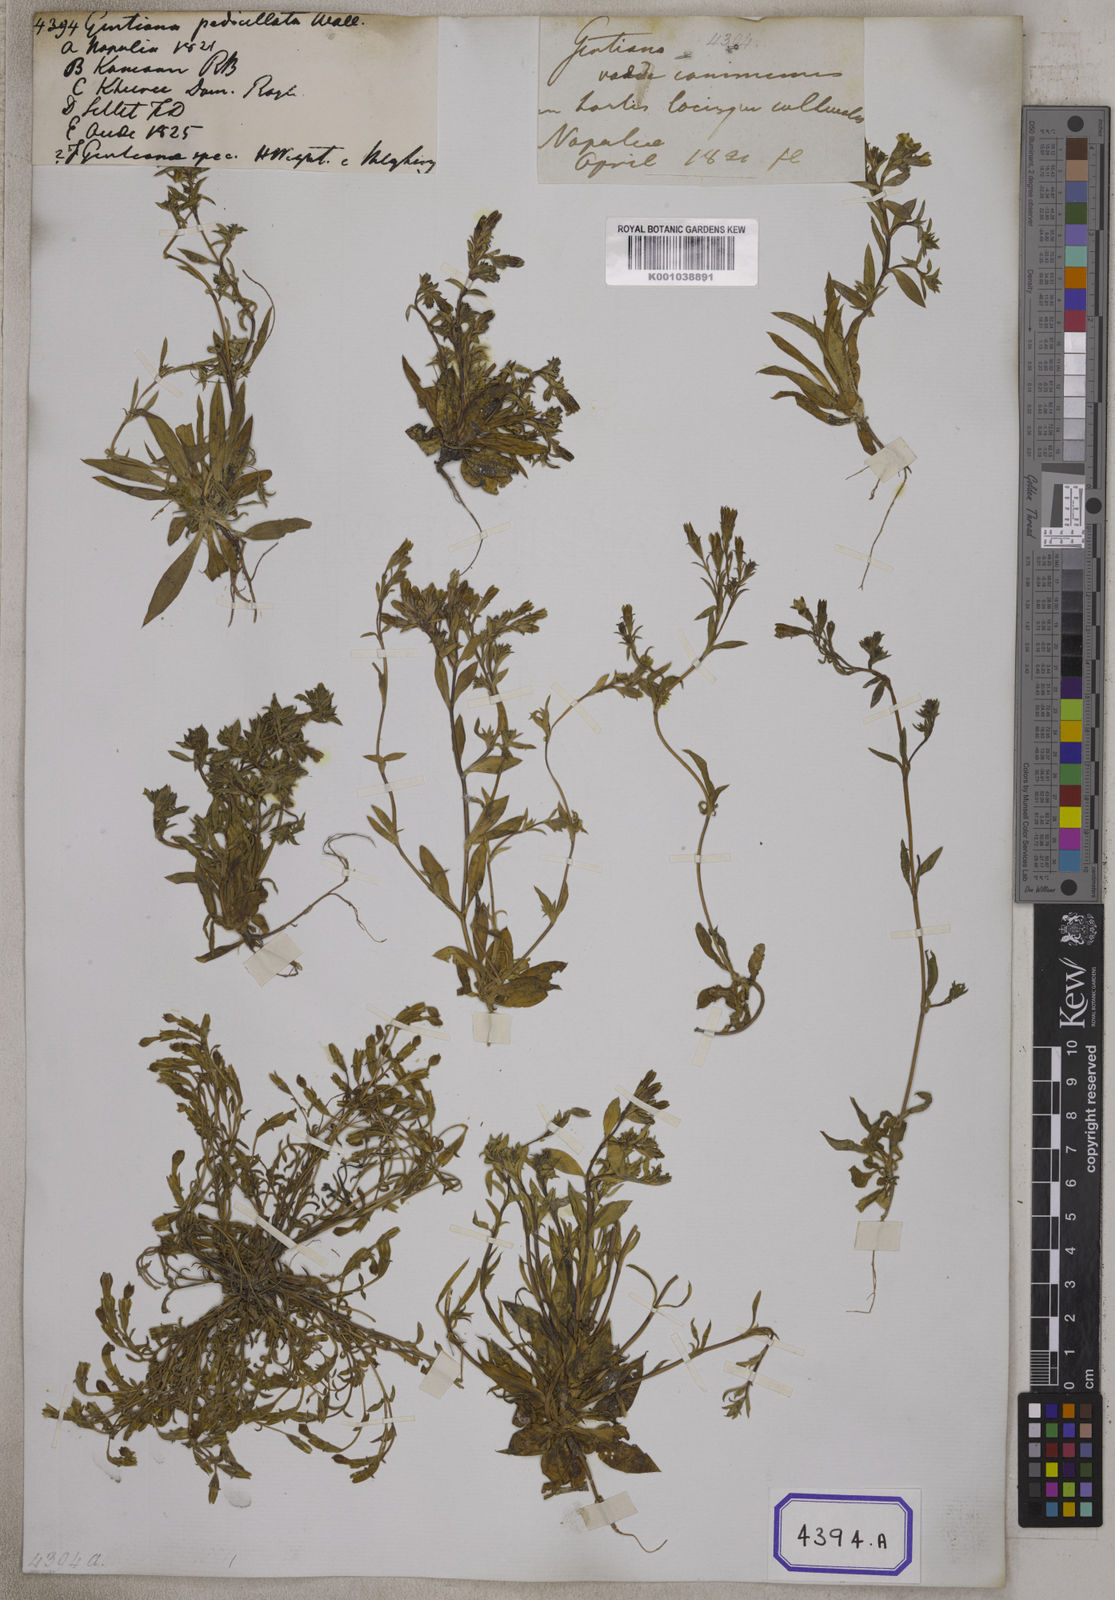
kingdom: Plantae
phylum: Tracheophyta
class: Magnoliopsida
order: Gentianales
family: Gentianaceae
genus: Gentiana
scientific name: Gentiana pedicellata
